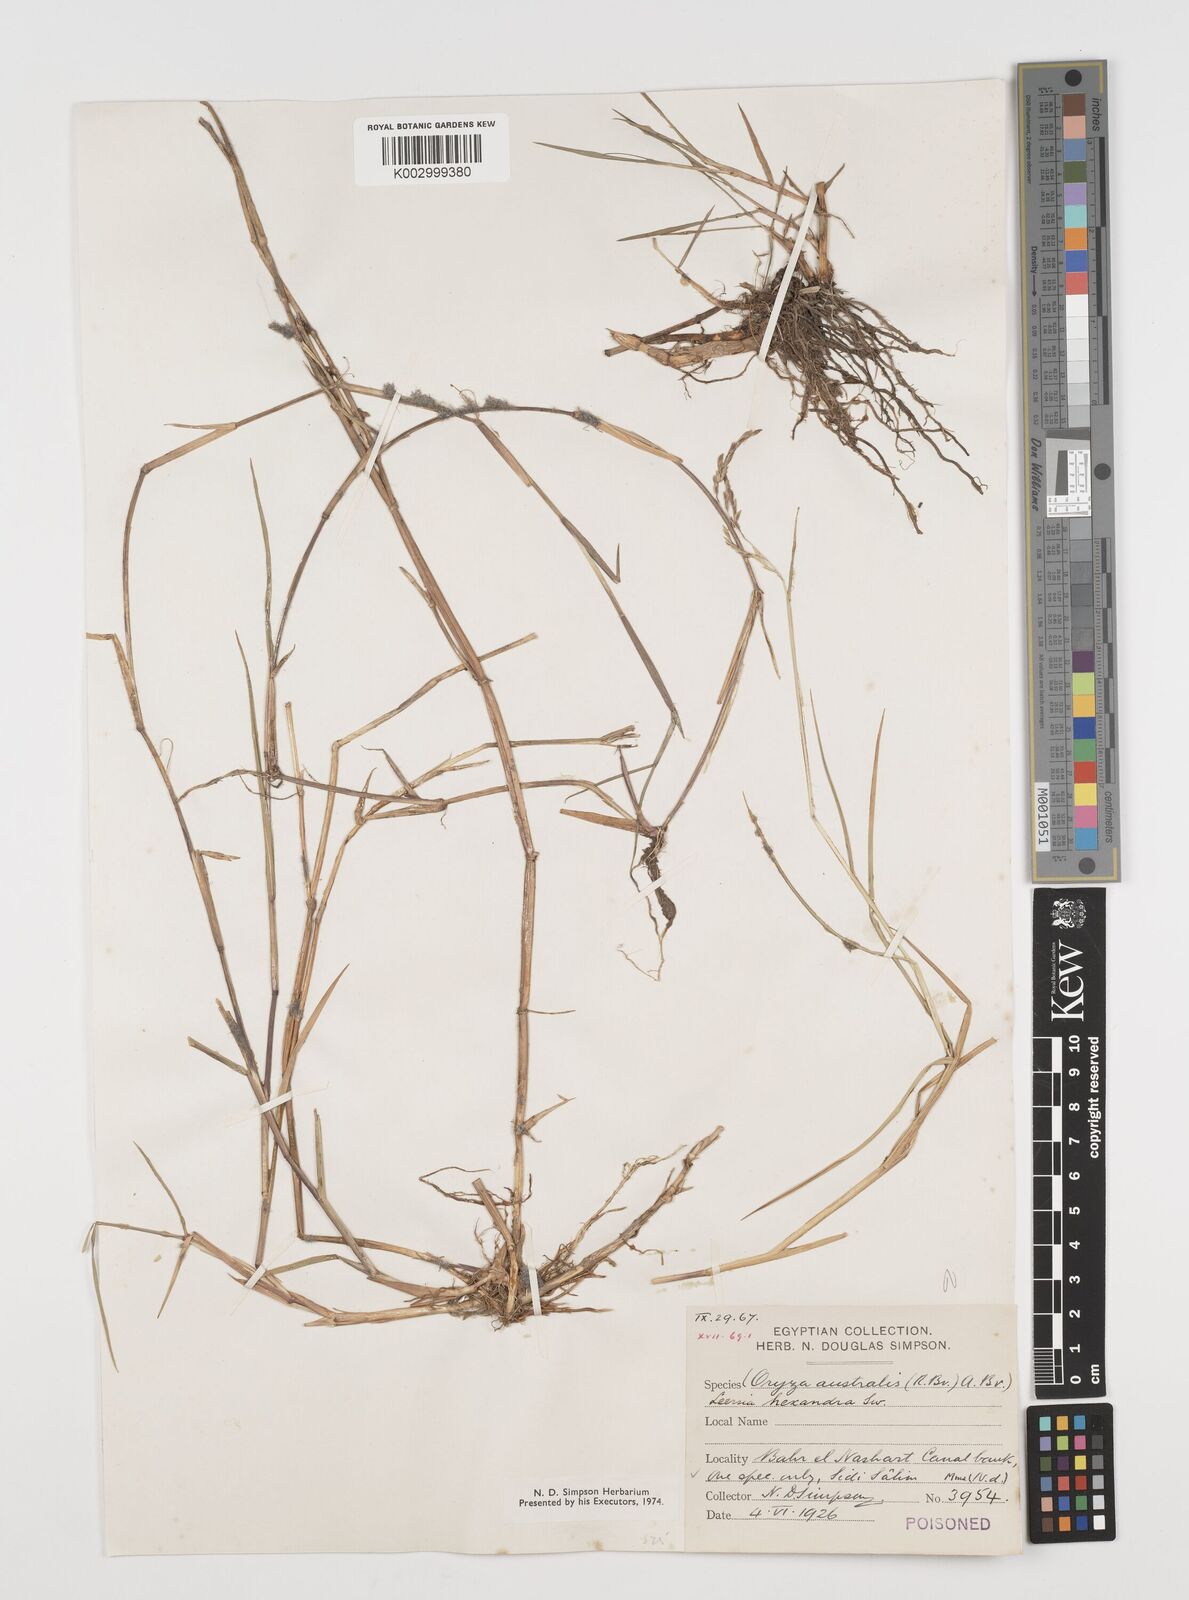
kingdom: Plantae
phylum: Tracheophyta
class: Liliopsida
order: Poales
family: Poaceae
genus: Leersia
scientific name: Leersia hexandra
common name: Southern cut grass
